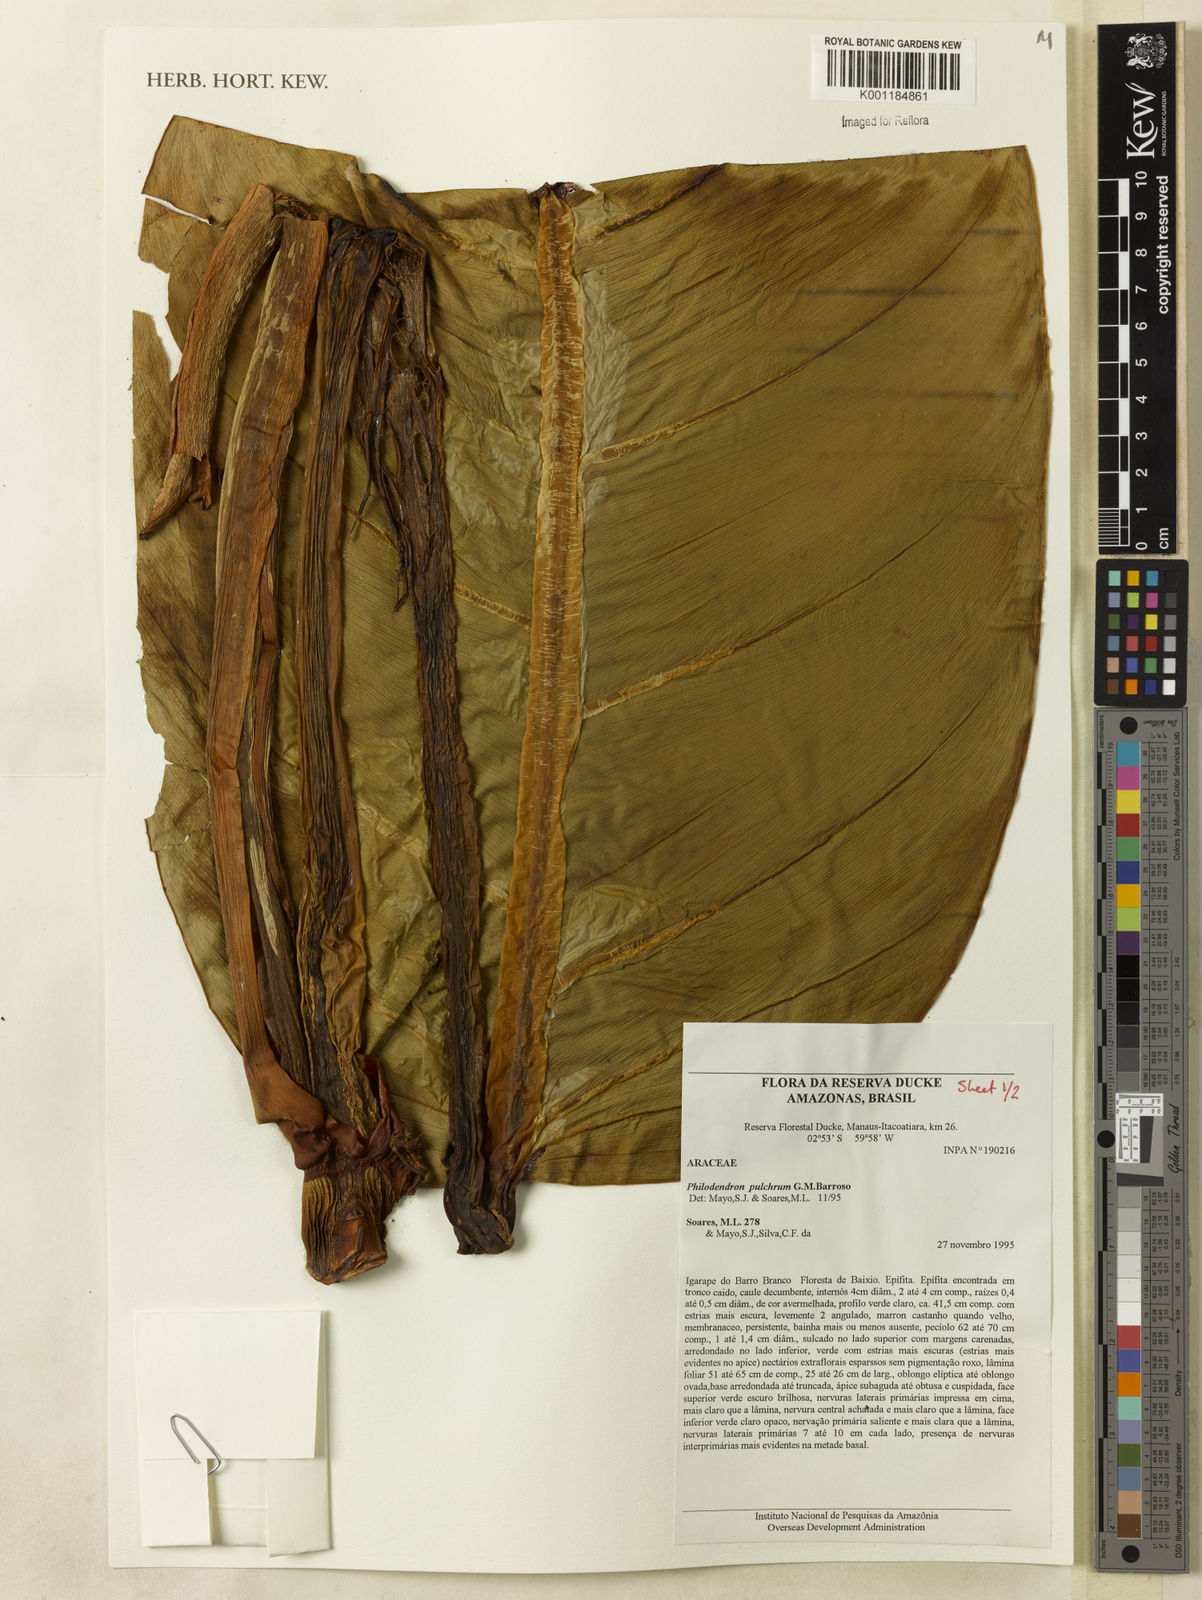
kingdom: Plantae
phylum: Tracheophyta
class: Liliopsida
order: Alismatales
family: Araceae
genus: Philodendron
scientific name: Philodendron pulchrum
